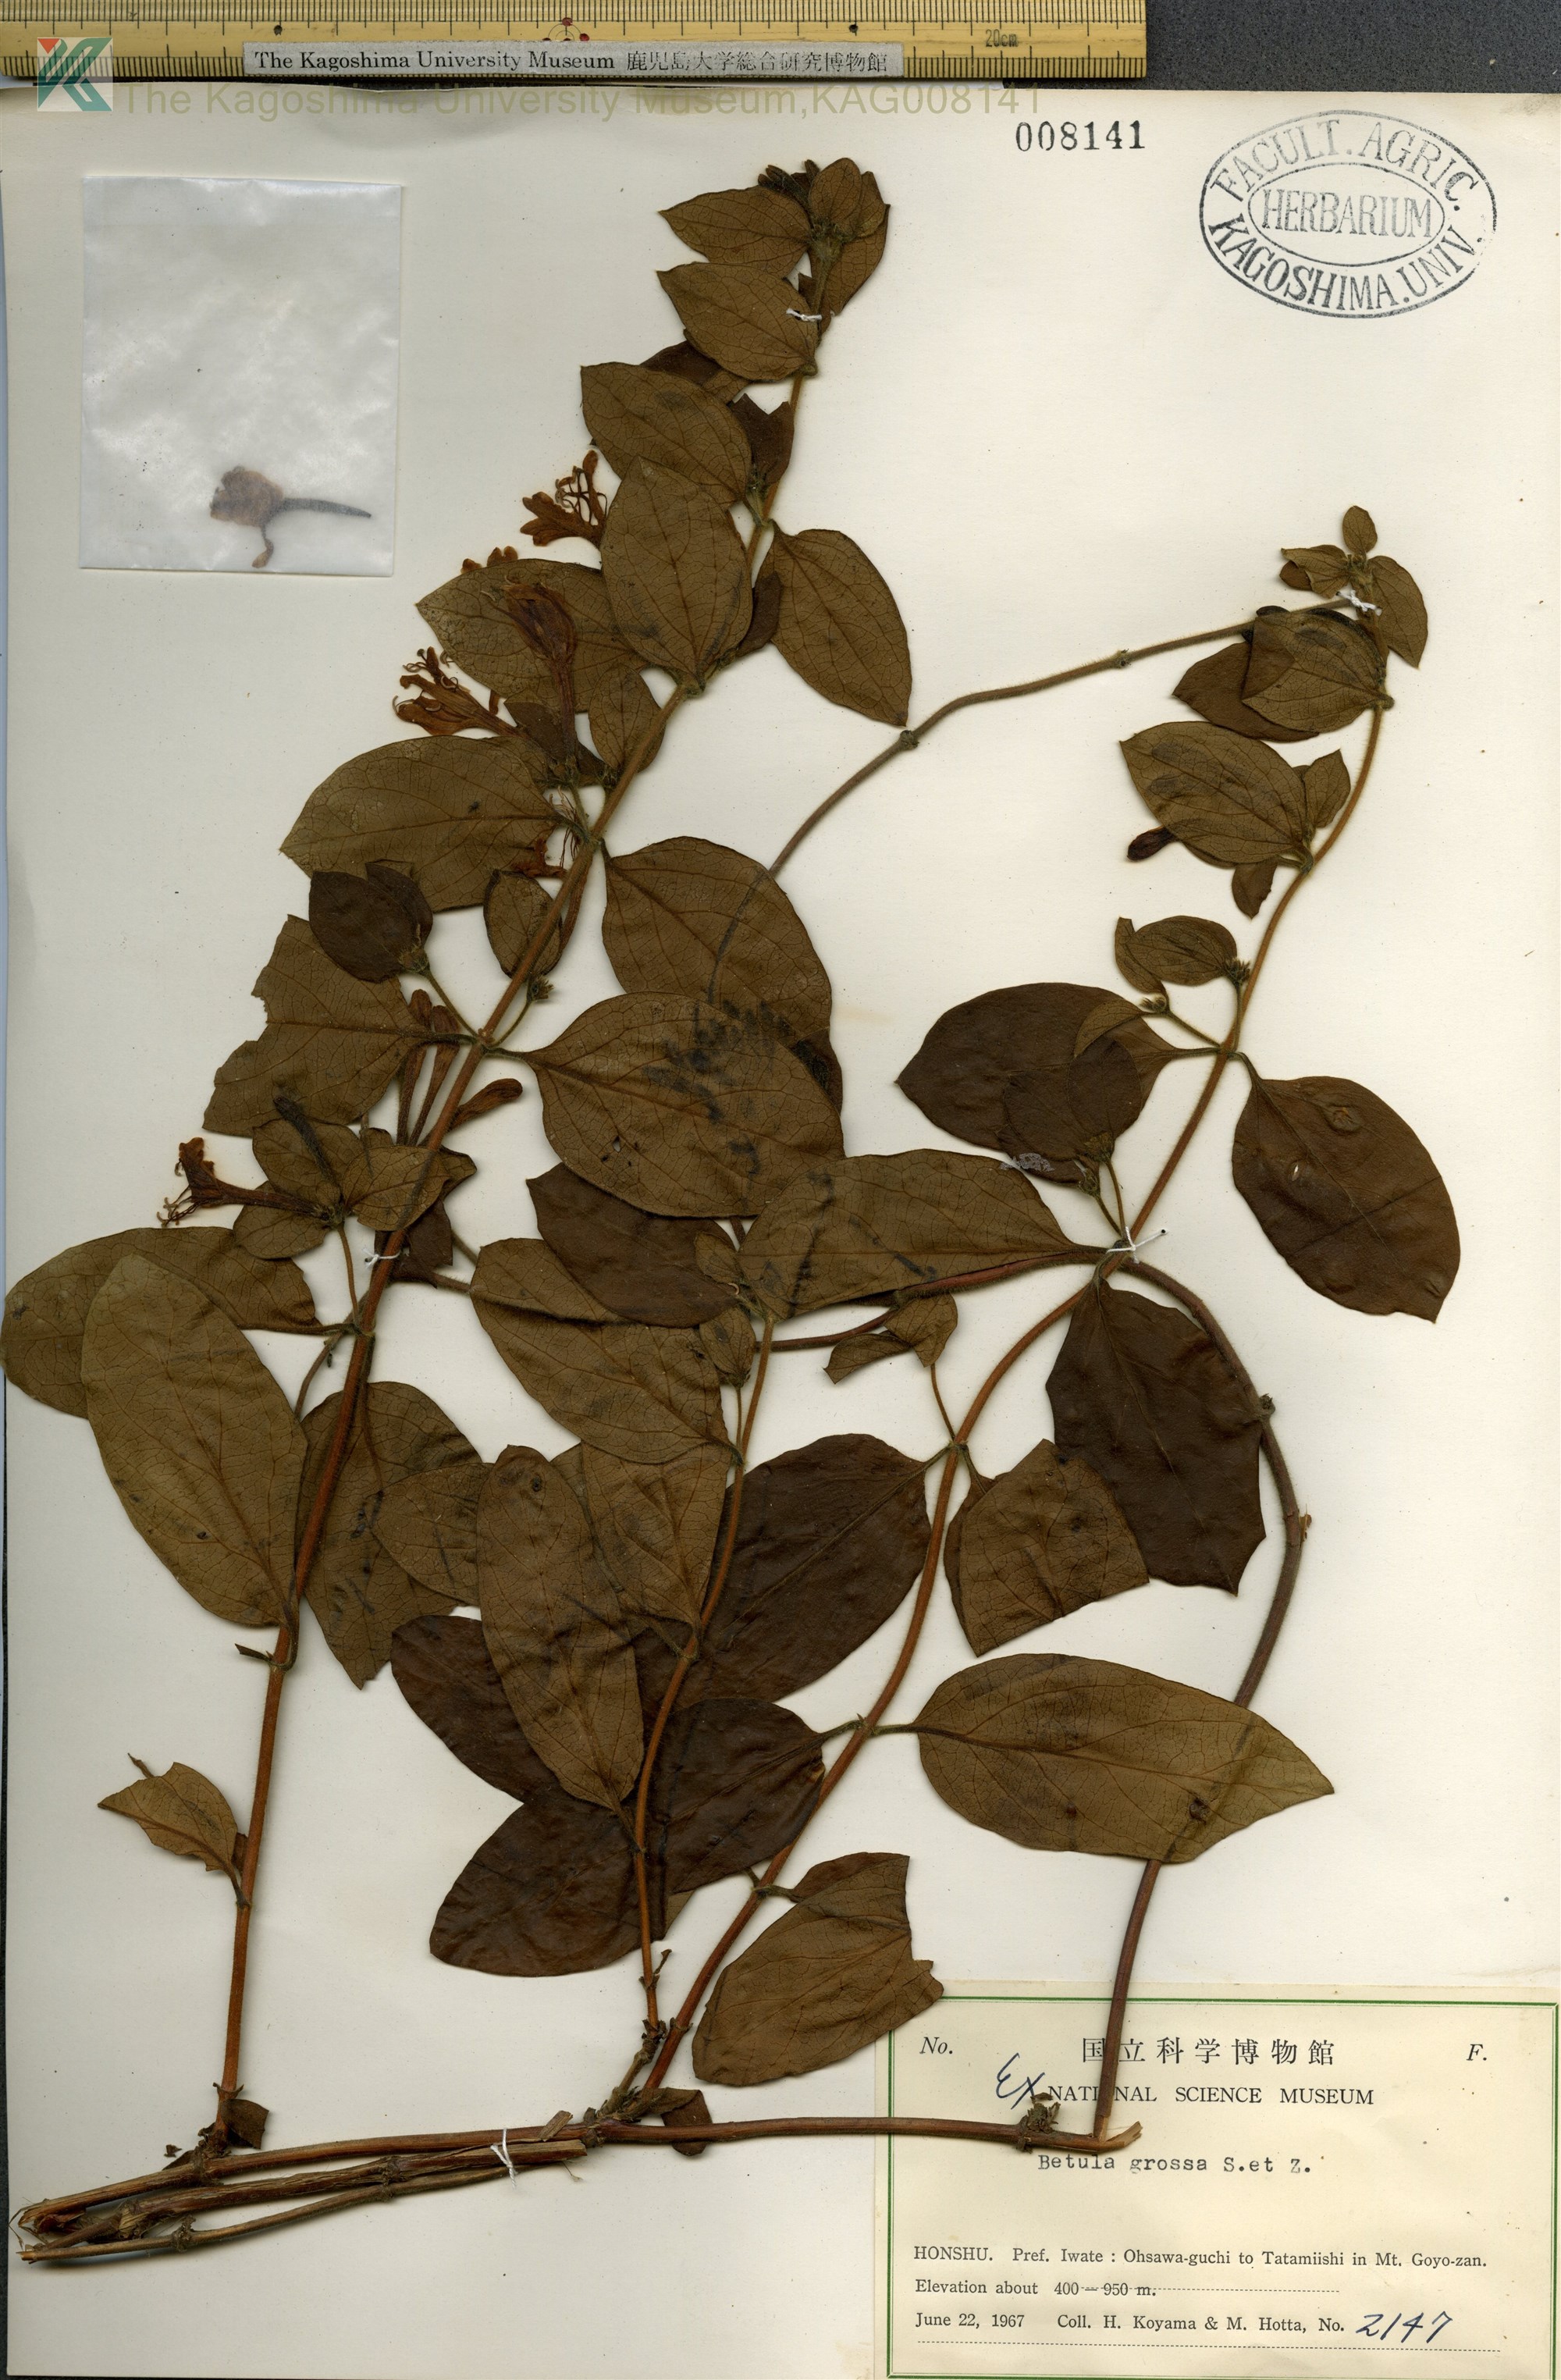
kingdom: Plantae
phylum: Tracheophyta
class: Magnoliopsida
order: Dipsacales
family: Caprifoliaceae
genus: Lonicera
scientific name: Lonicera japonica
